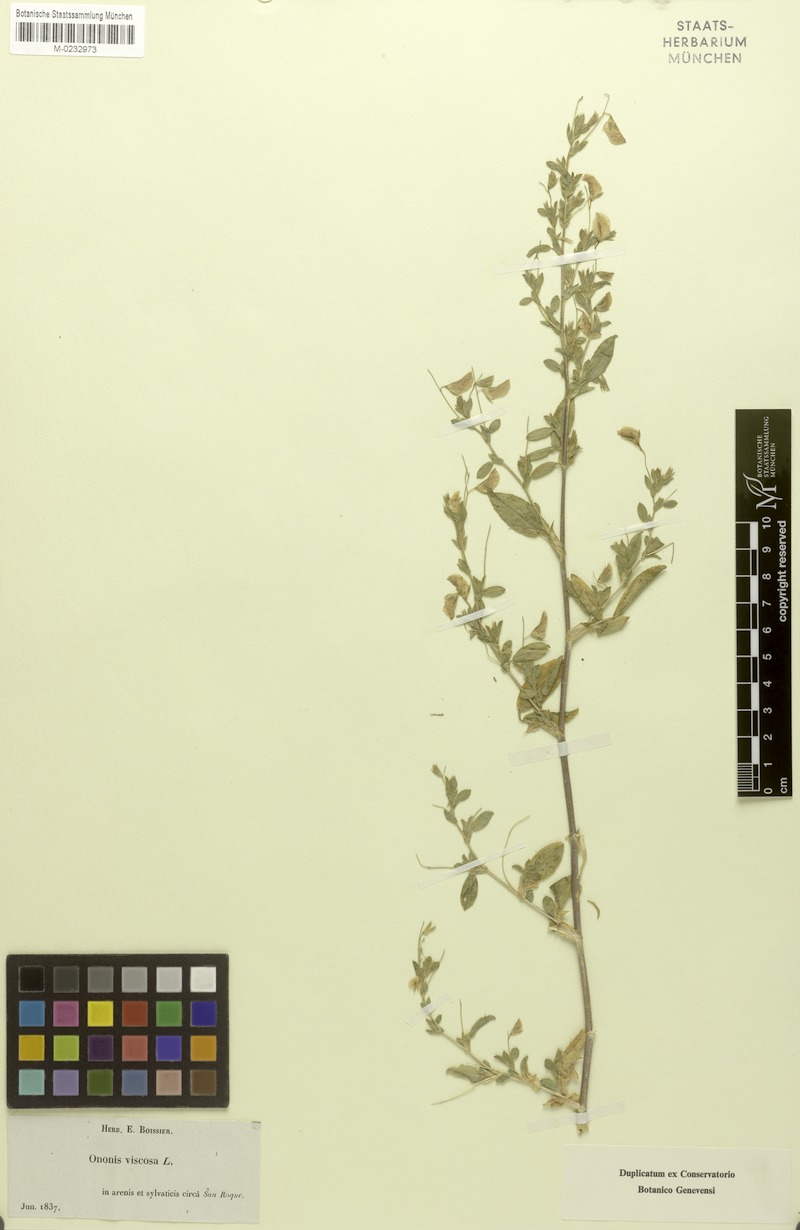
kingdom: Plantae
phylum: Tracheophyta
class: Magnoliopsida
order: Fabales
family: Fabaceae
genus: Ononis
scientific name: Ononis viscosa
